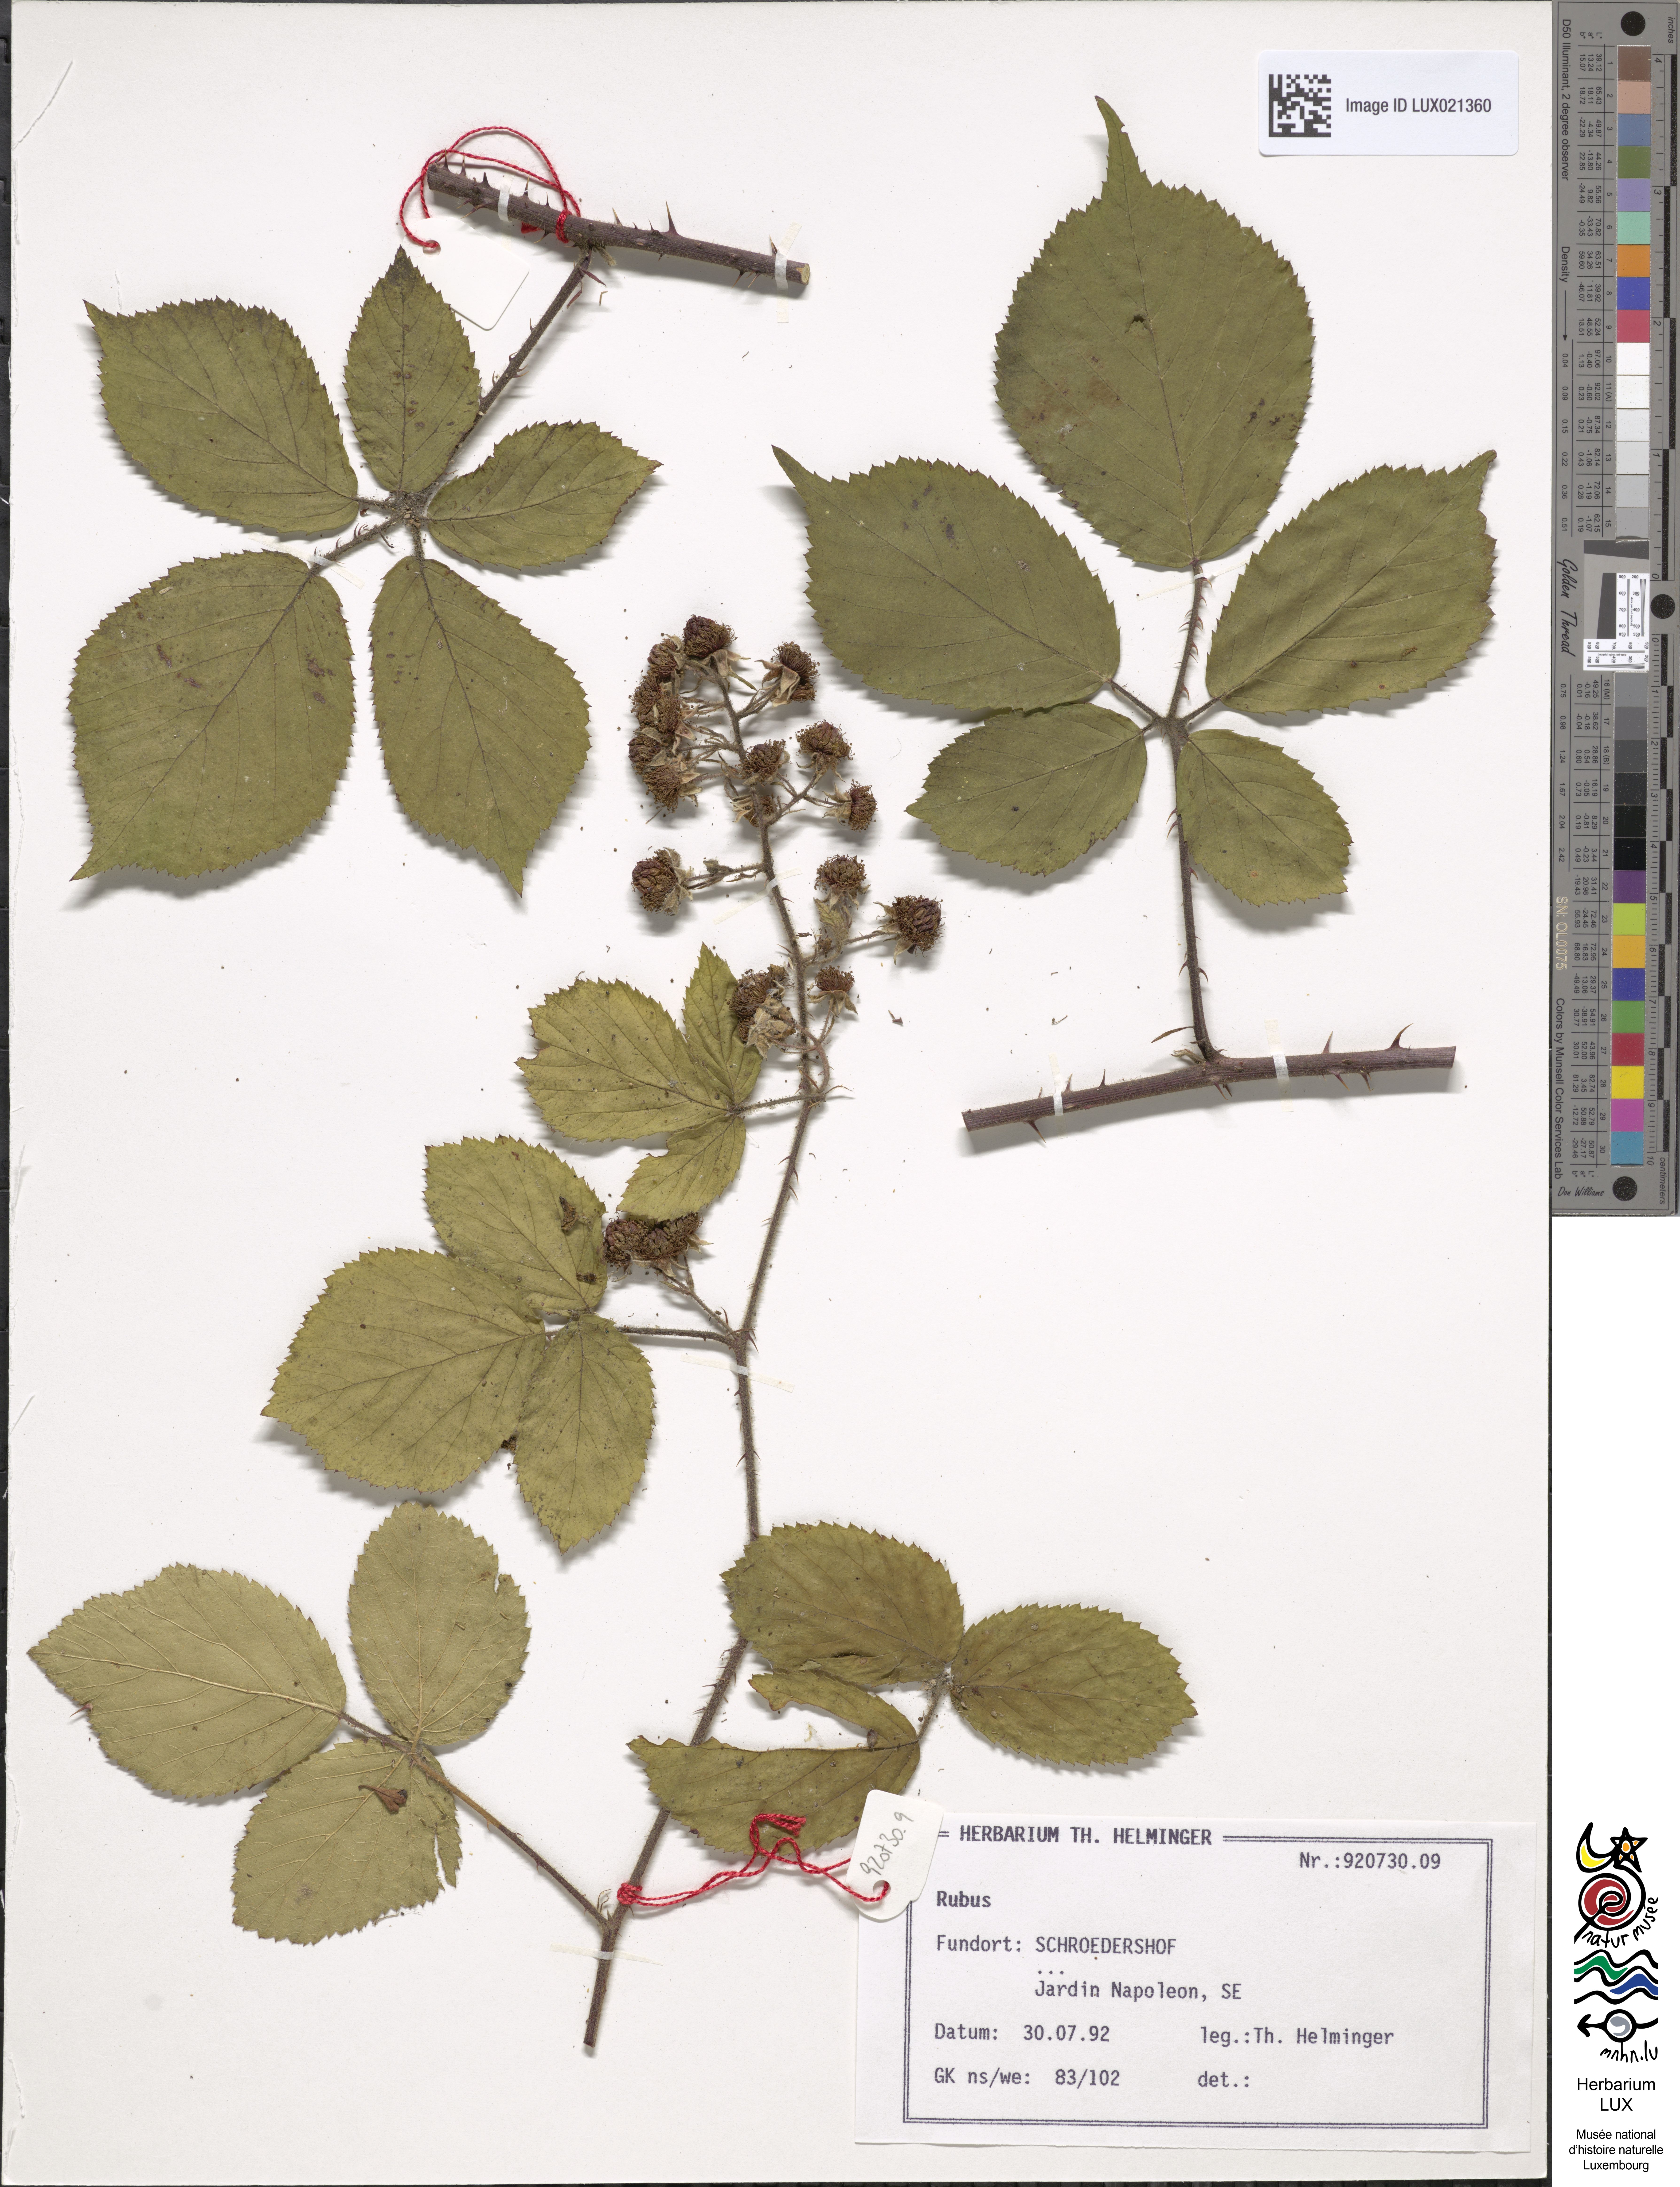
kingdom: Plantae
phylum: Tracheophyta
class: Magnoliopsida
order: Rosales
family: Rosaceae
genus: Rubus
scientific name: Rubus
